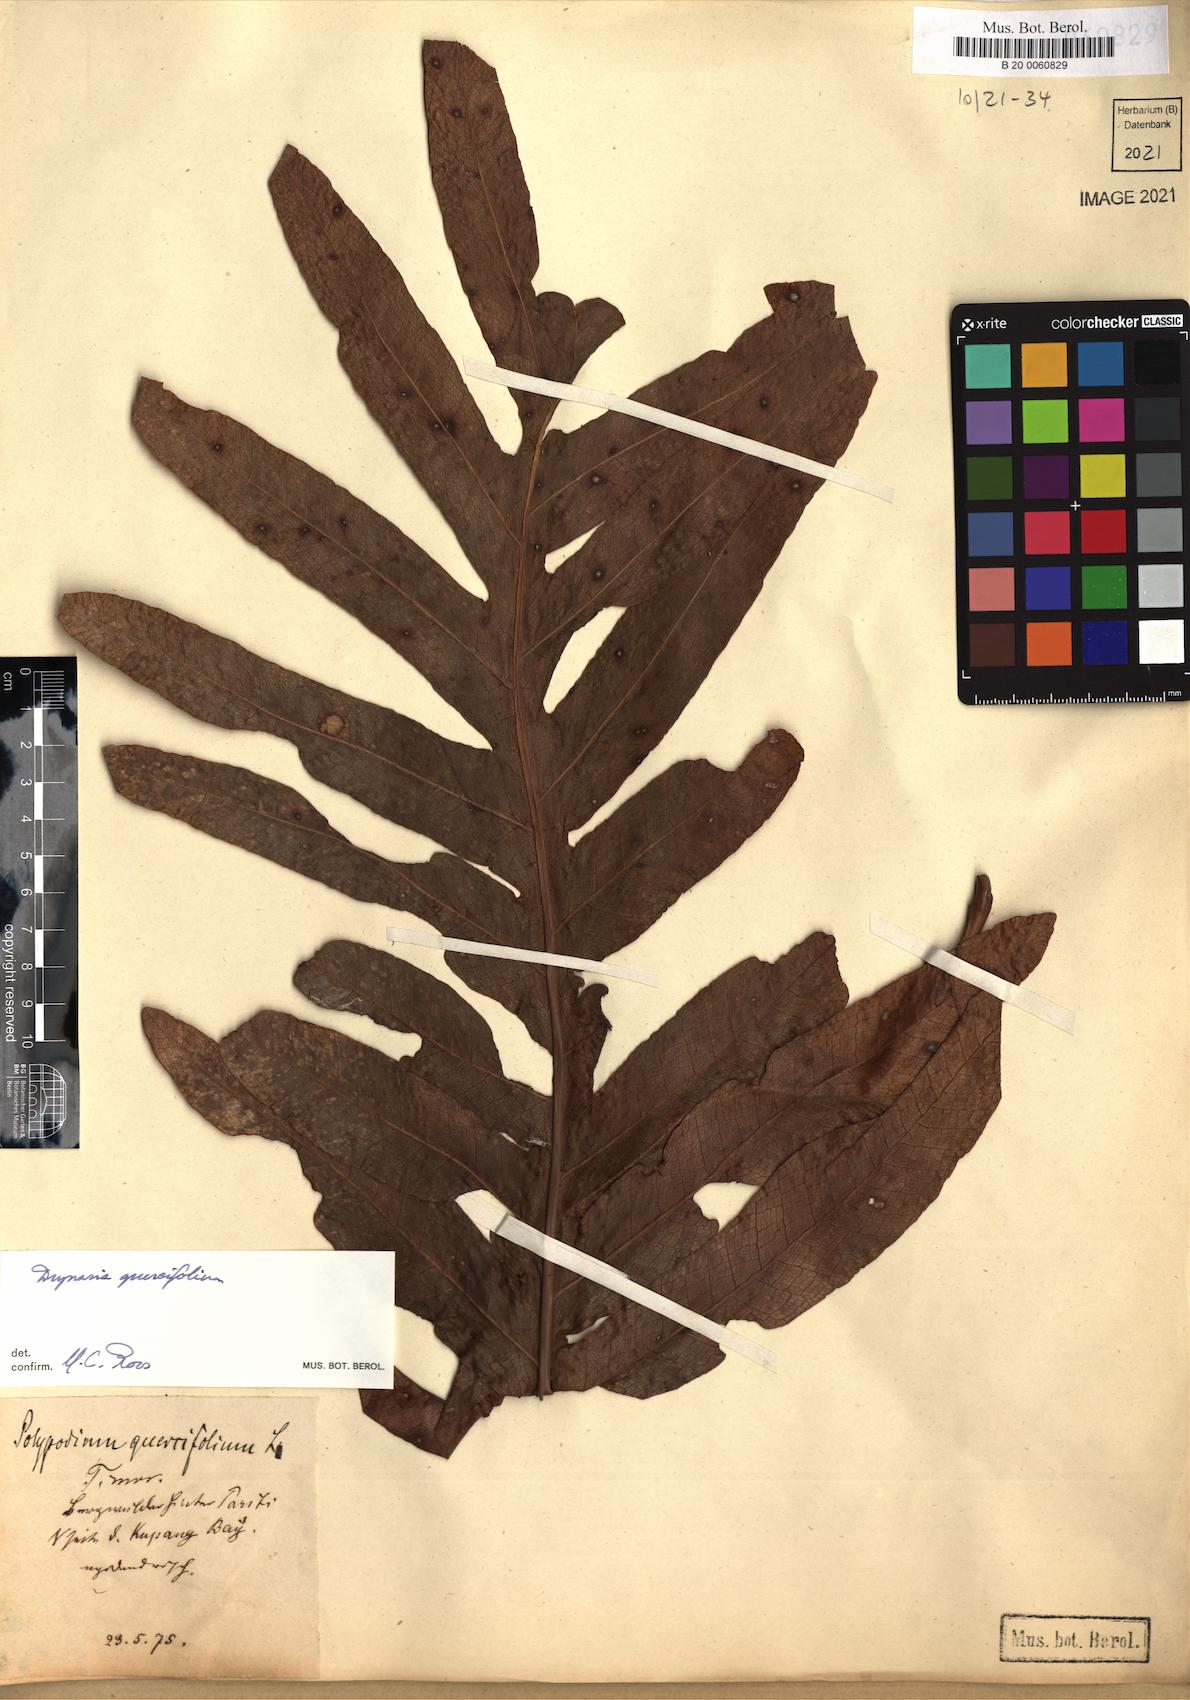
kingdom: Plantae
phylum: Tracheophyta
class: Polypodiopsida
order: Polypodiales
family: Polypodiaceae
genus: Drynaria
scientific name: Drynaria quercifolia
